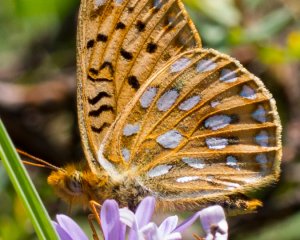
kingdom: Animalia
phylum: Arthropoda
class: Insecta
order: Lepidoptera
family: Nymphalidae
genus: Speyeria
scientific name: Speyeria mormonia
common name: Mormon Fritillary
